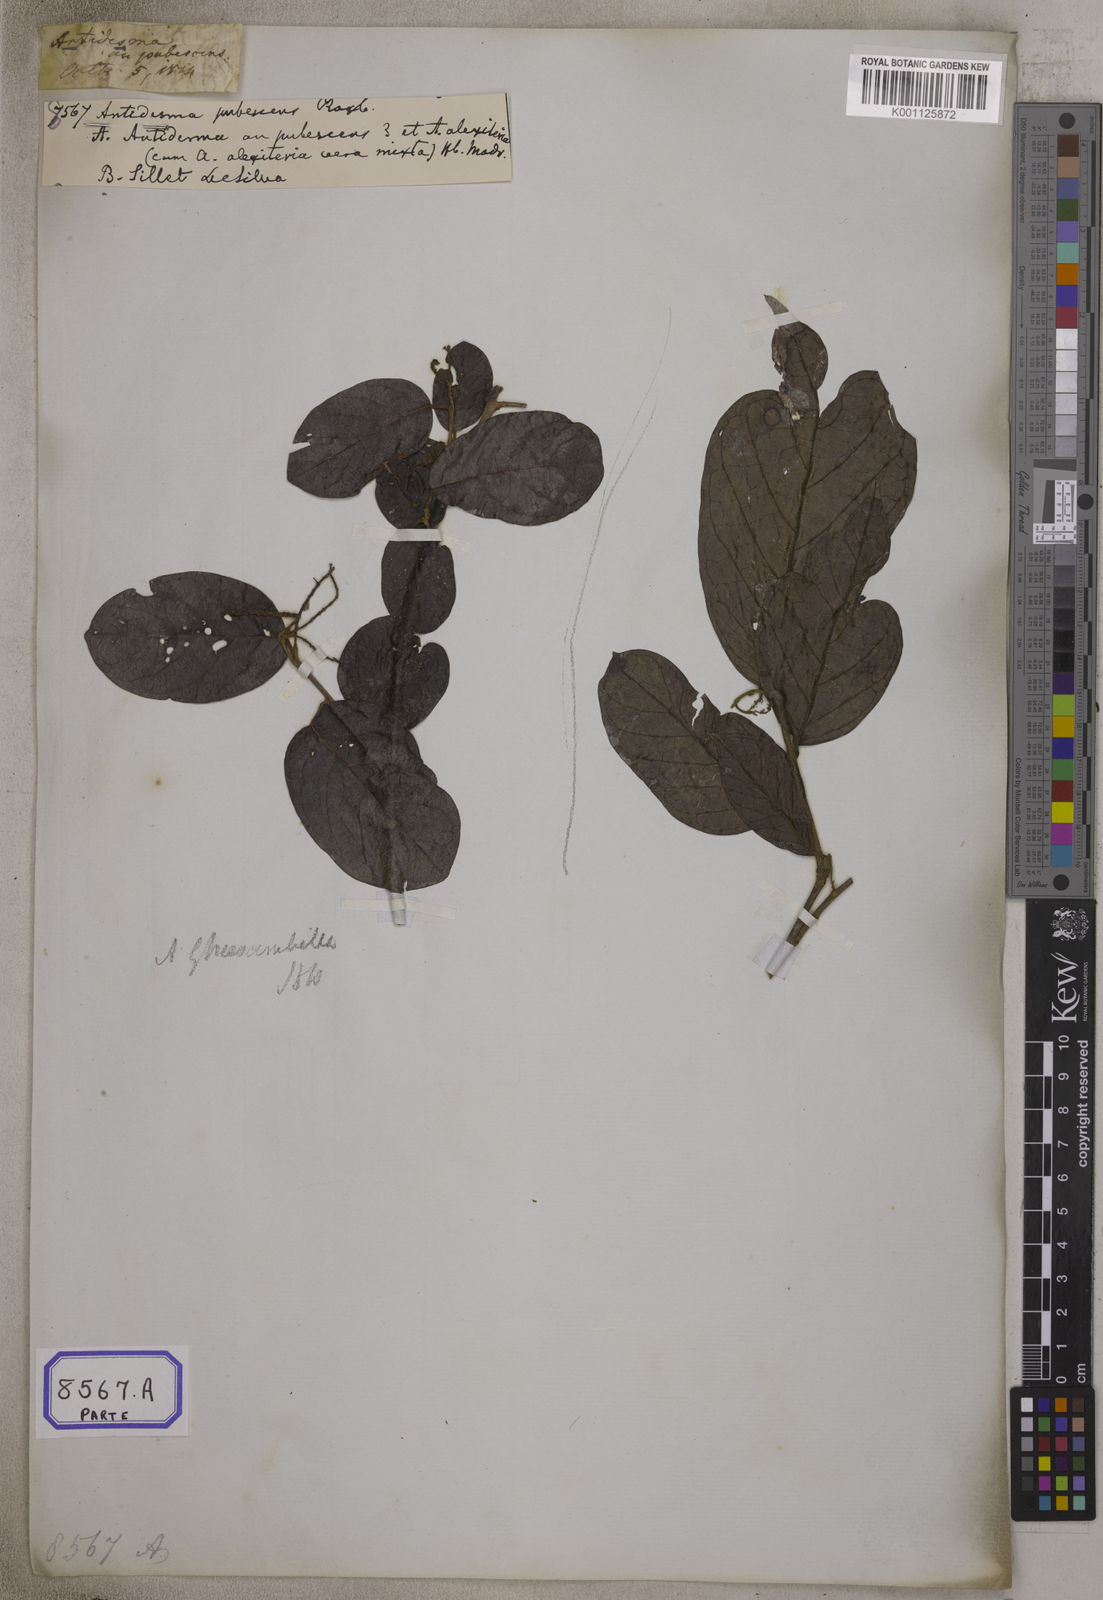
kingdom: Plantae
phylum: Tracheophyta
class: Magnoliopsida
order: Malpighiales
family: Phyllanthaceae
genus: Antidesma
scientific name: Antidesma ghaesembilla
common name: Black currant-tree
